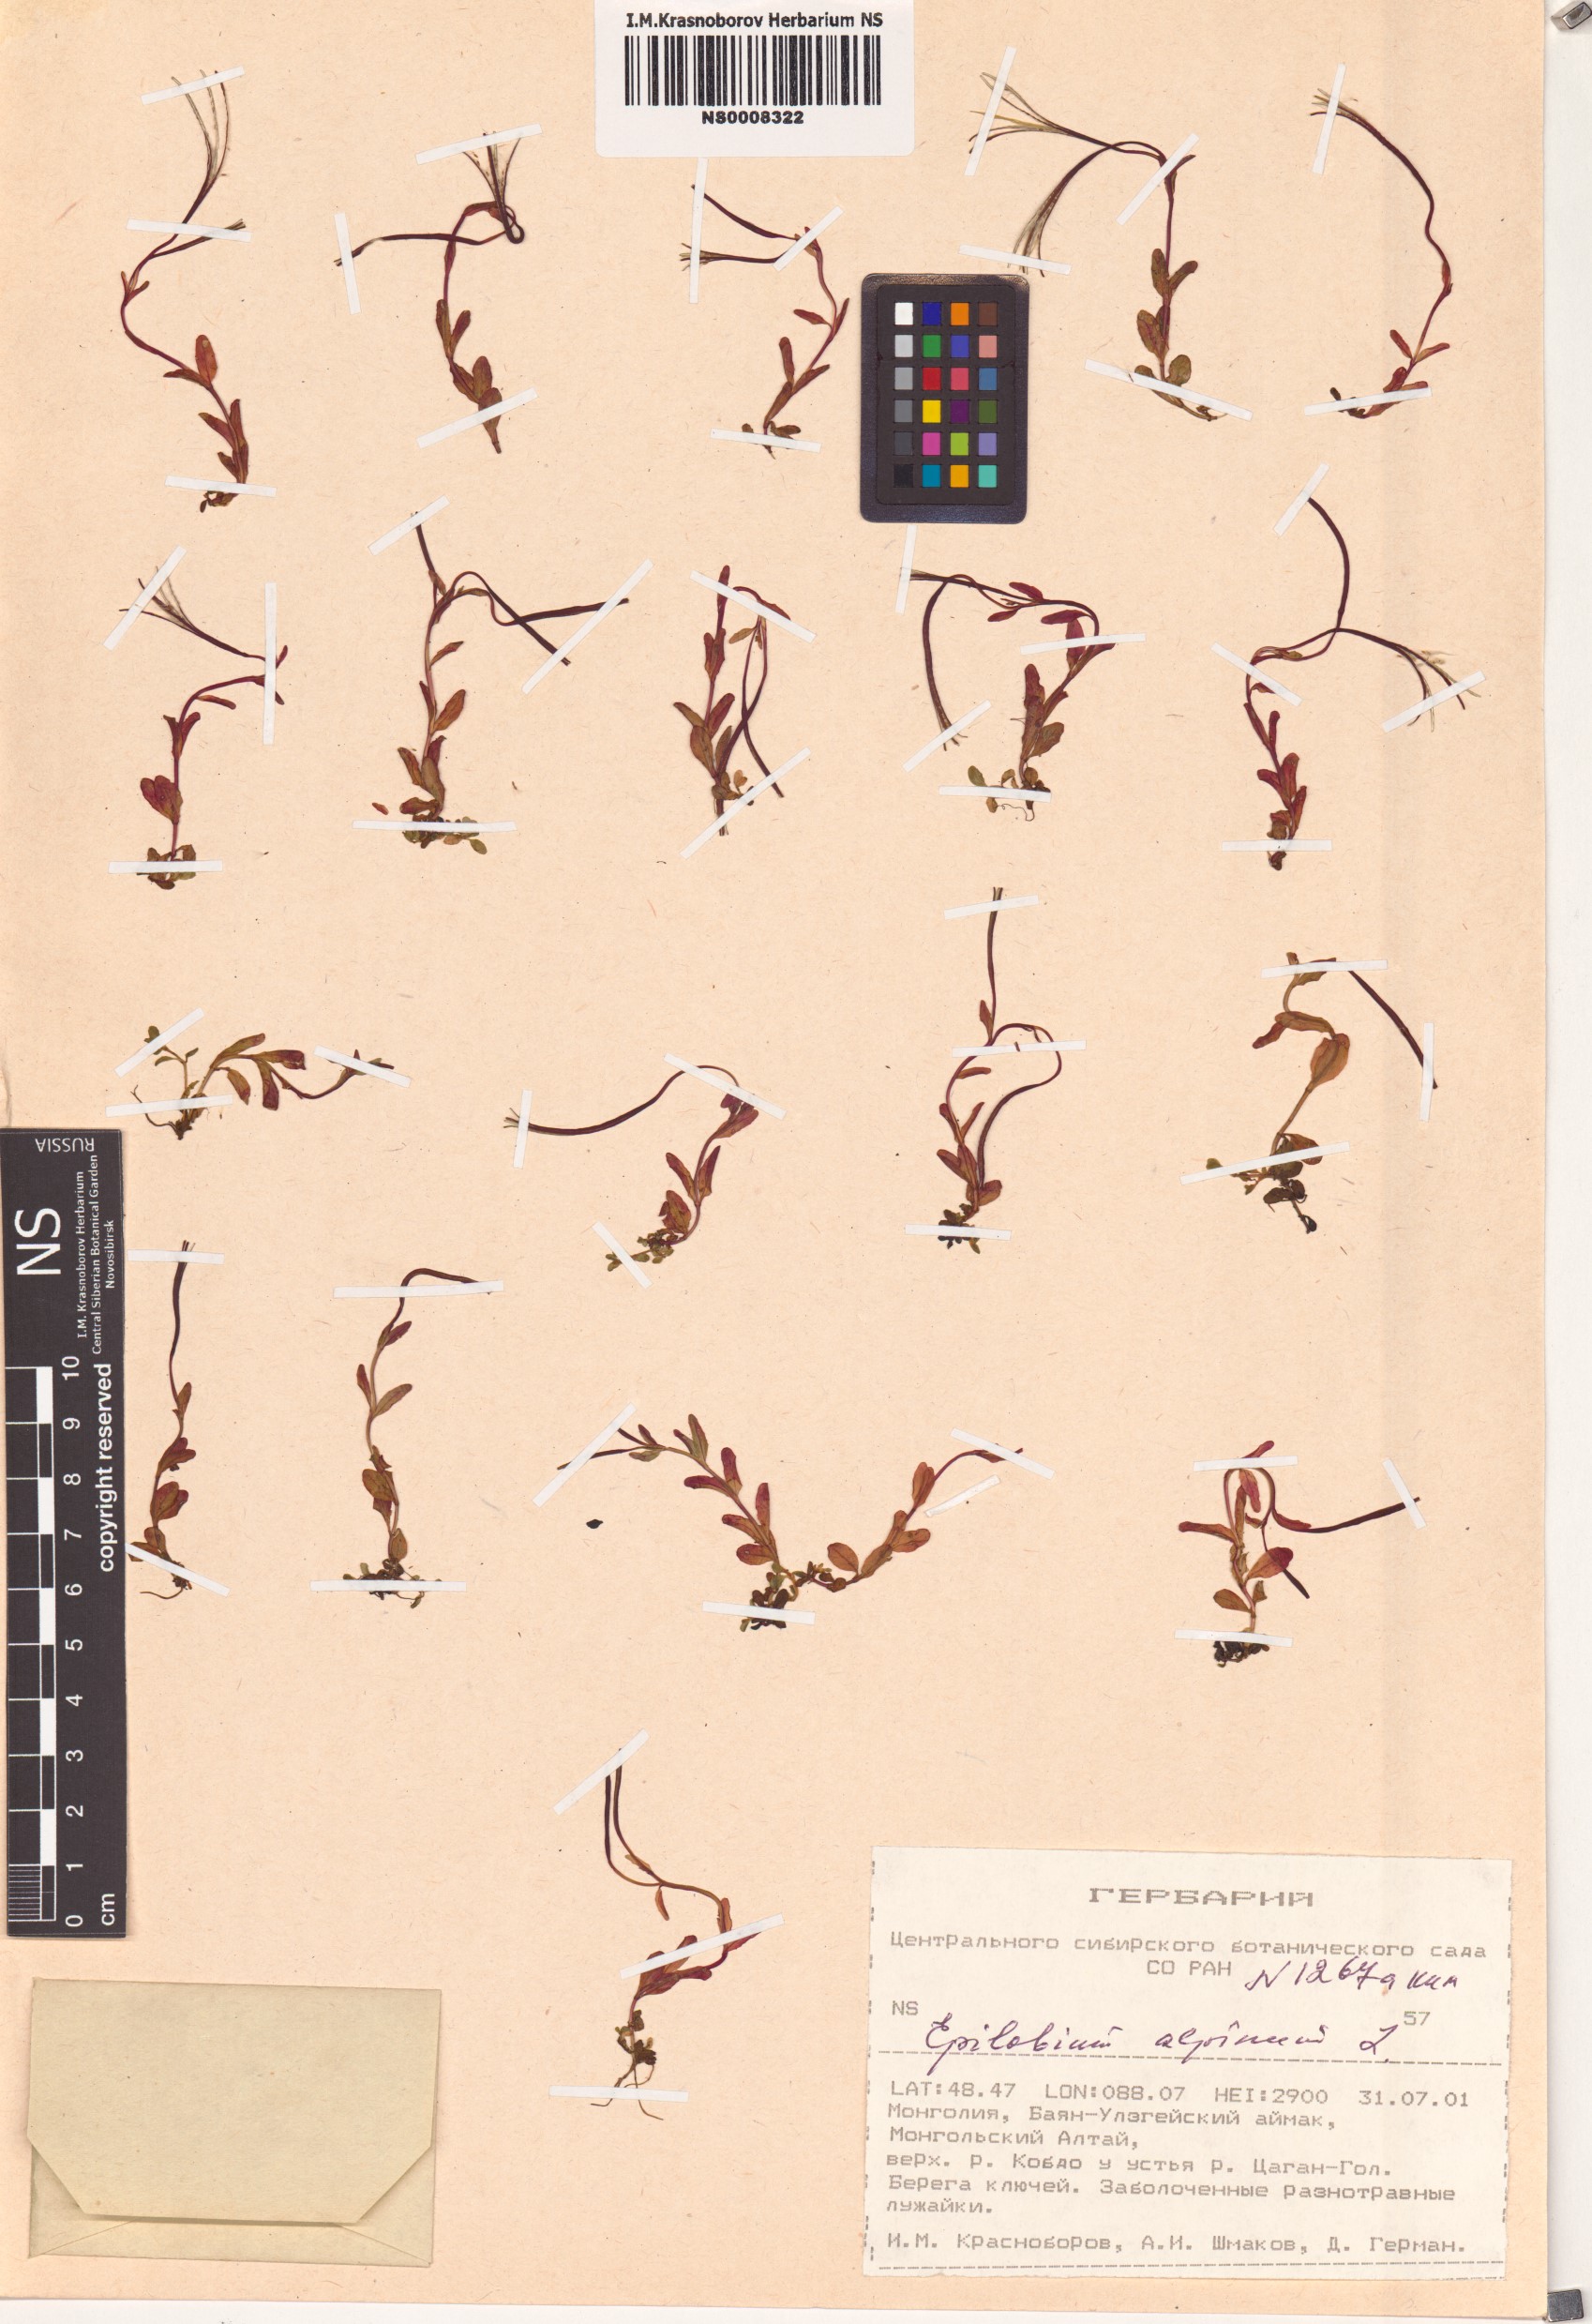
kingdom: Plantae
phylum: Tracheophyta
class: Magnoliopsida
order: Myrtales
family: Onagraceae
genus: Epilobium
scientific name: Epilobium
